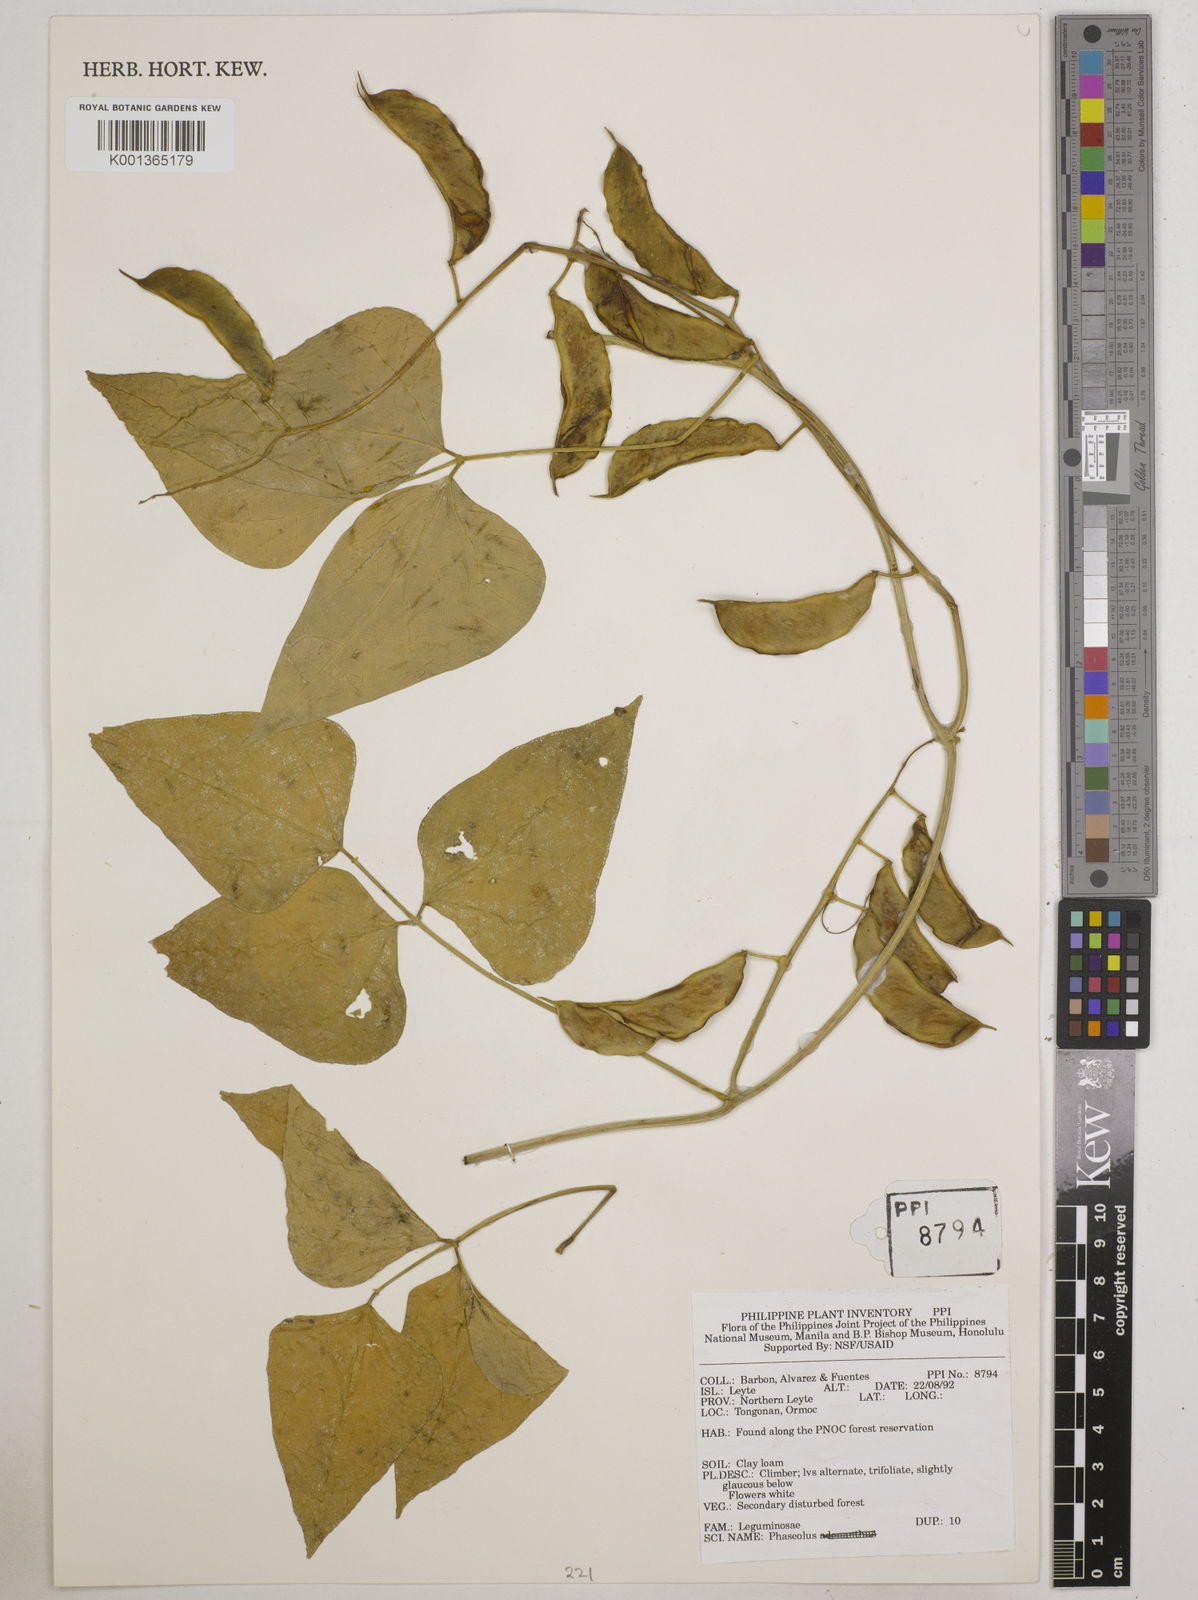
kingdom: Plantae
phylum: Tracheophyta
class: Magnoliopsida
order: Fabales
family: Fabaceae
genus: Phaseolus
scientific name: Phaseolus
